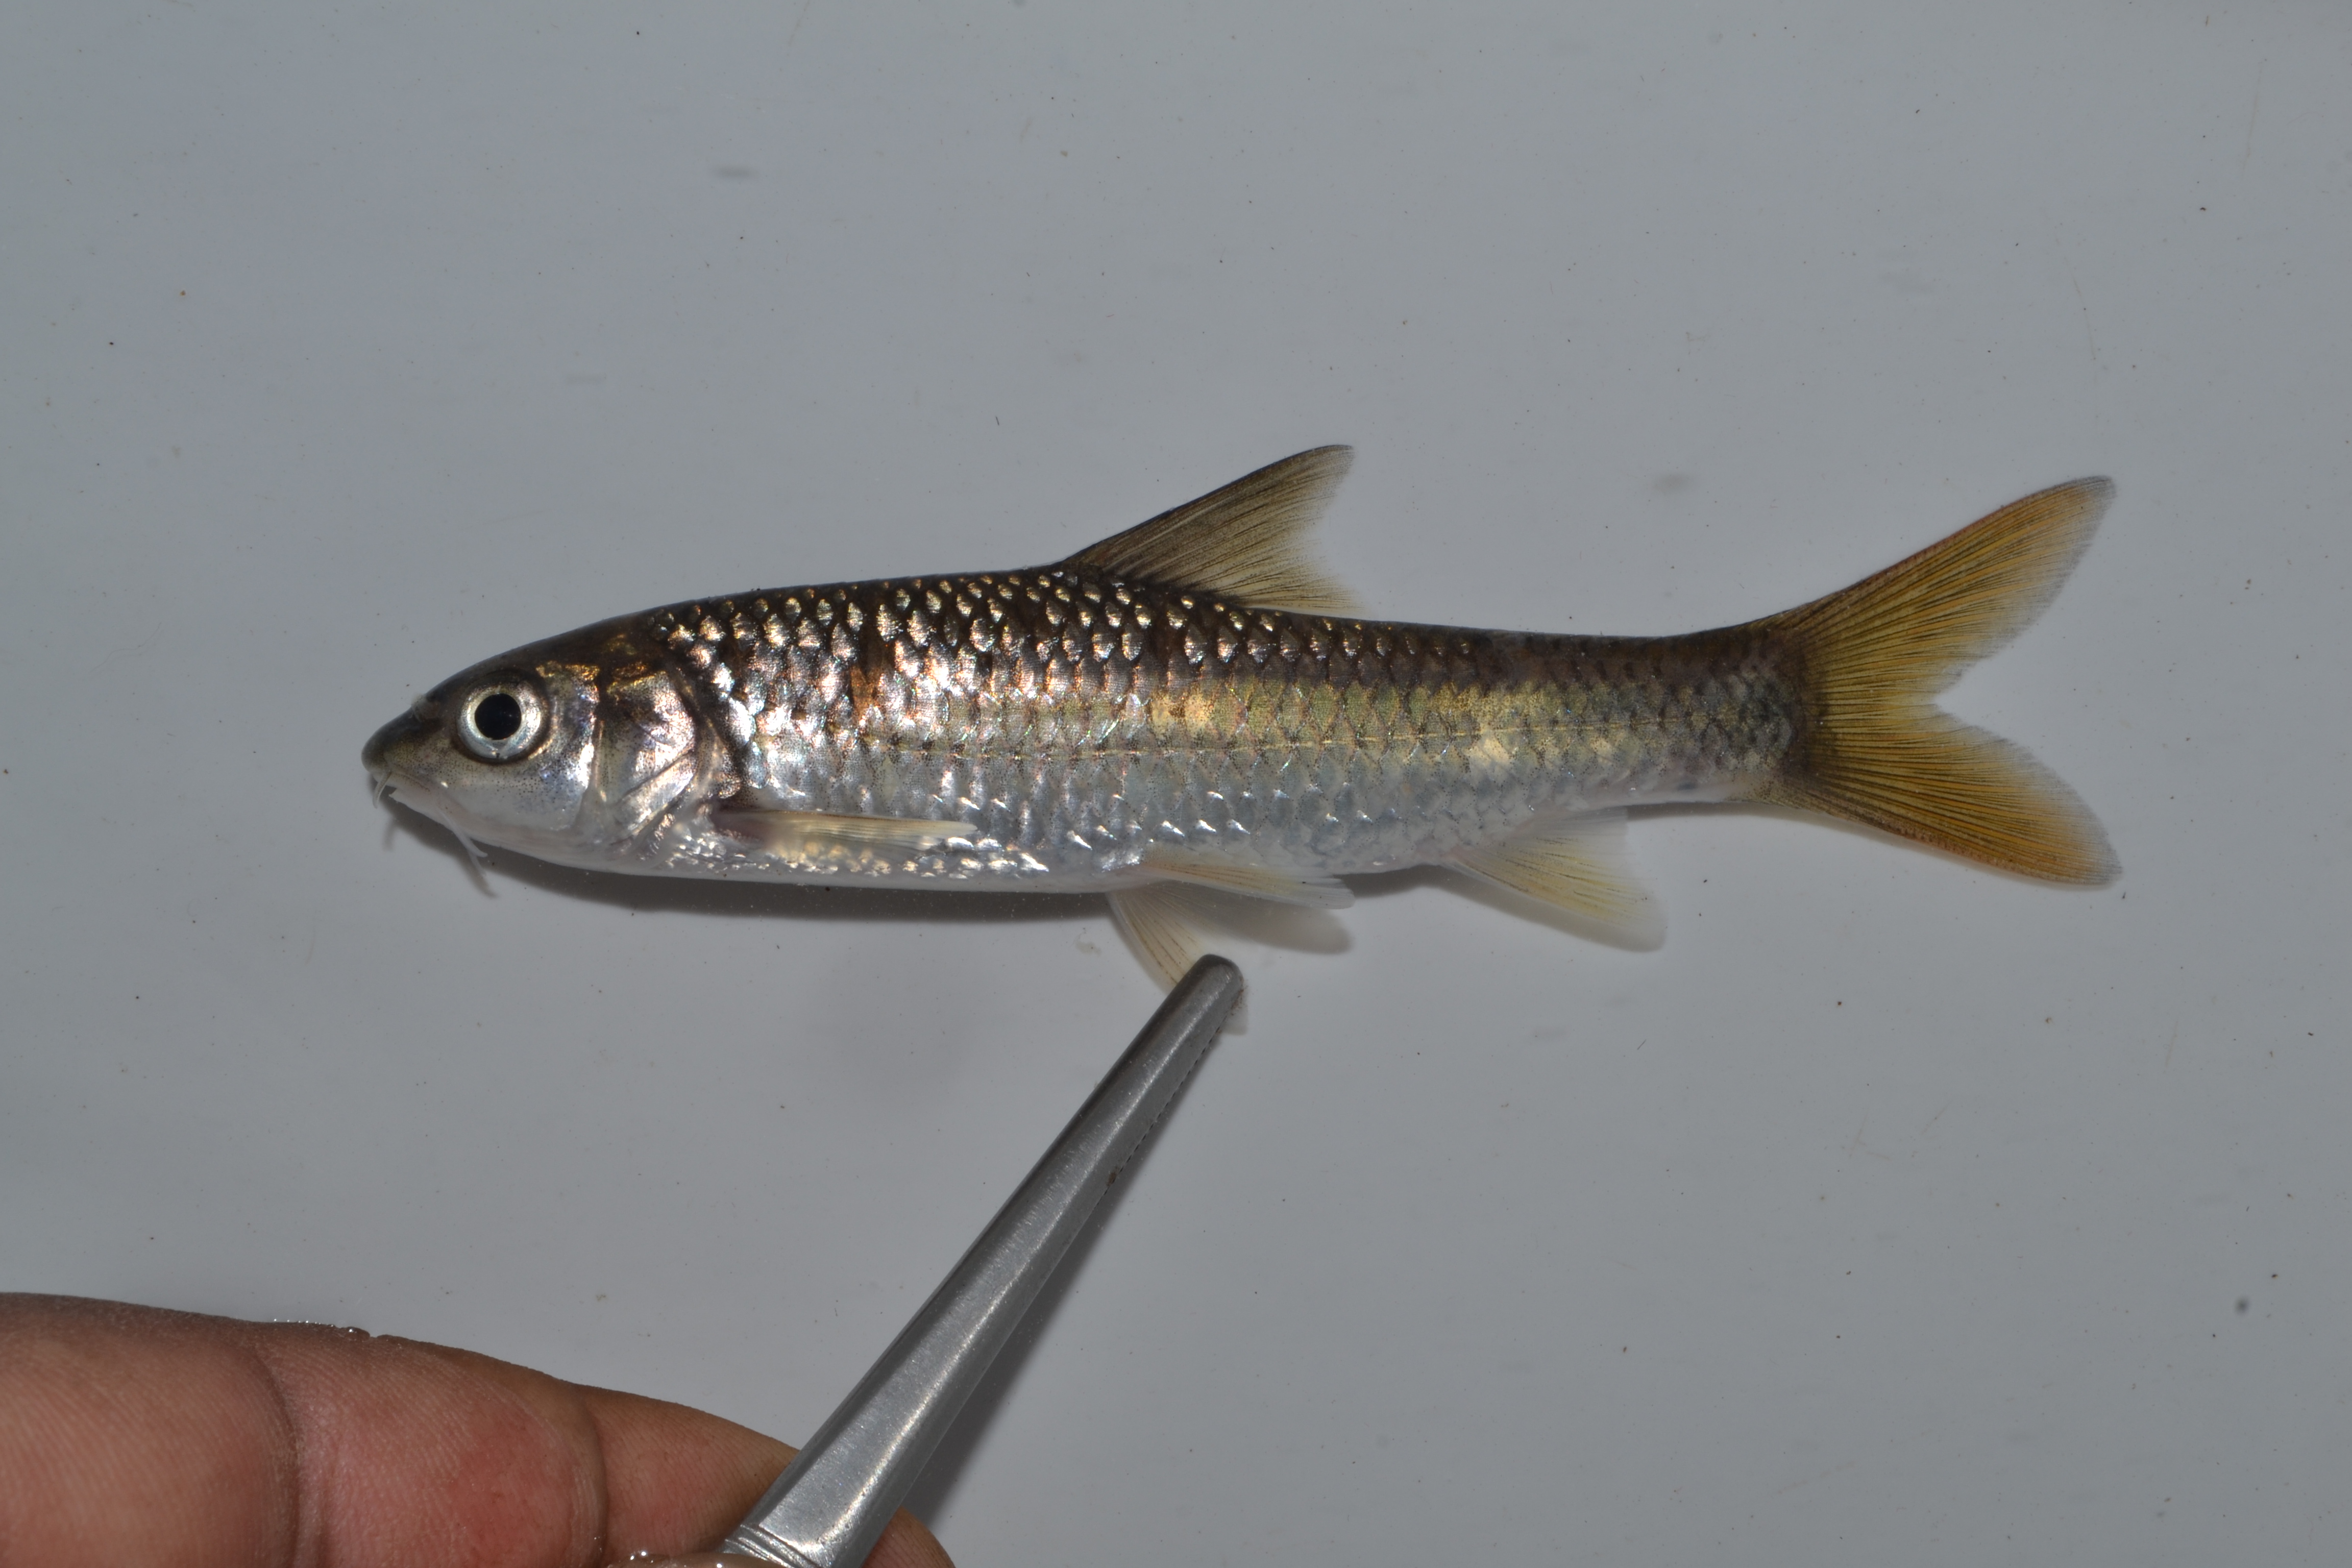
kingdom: Animalia
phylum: Chordata
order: Cypriniformes
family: Cyprinidae
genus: Labeobarbus
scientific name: Labeobarbus natalensis
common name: Scaly
